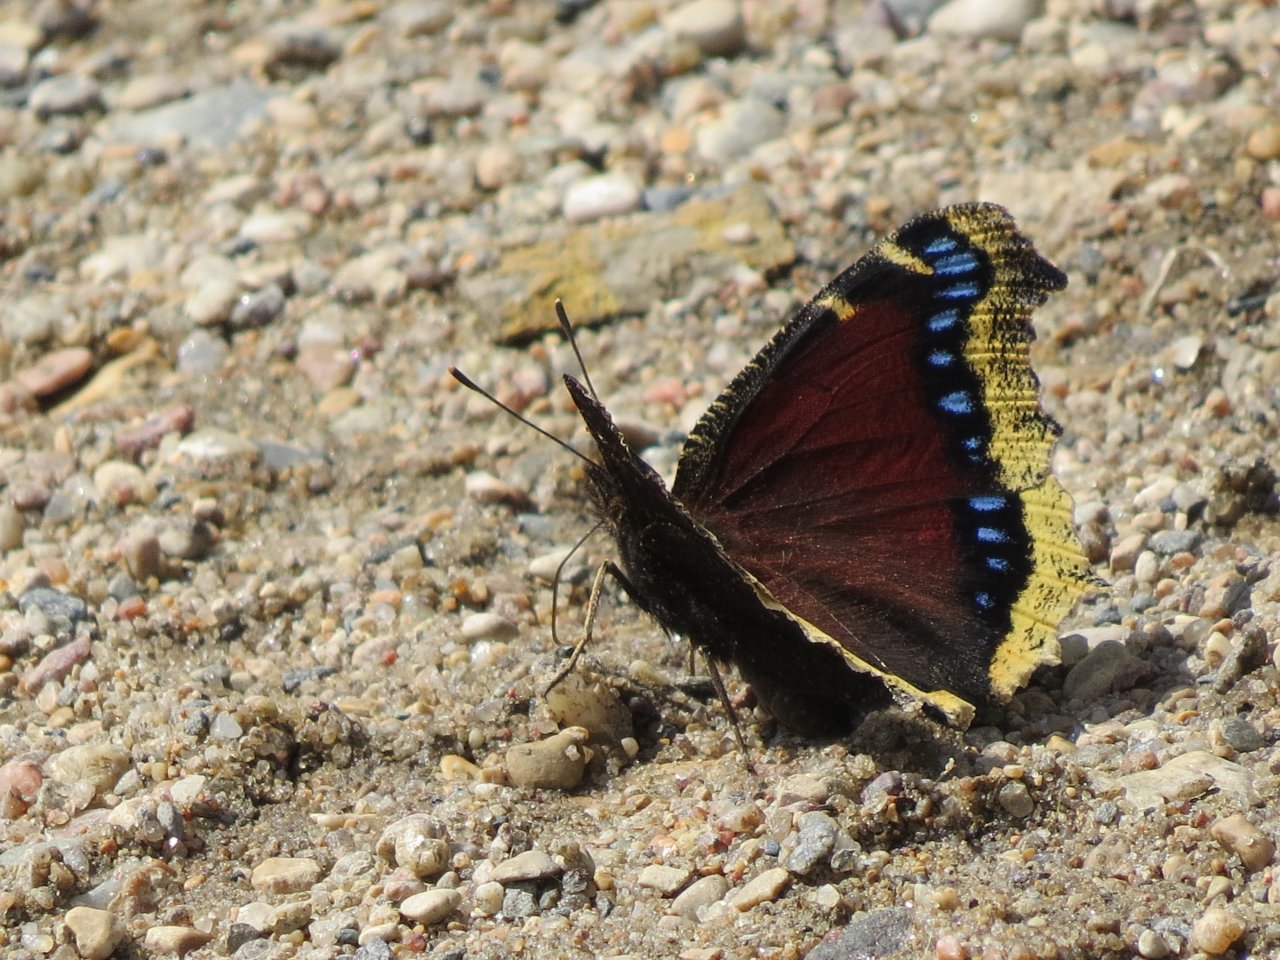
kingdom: Animalia
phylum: Arthropoda
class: Insecta
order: Lepidoptera
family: Nymphalidae
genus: Nymphalis
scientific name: Nymphalis antiopa
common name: Mourning Cloak
